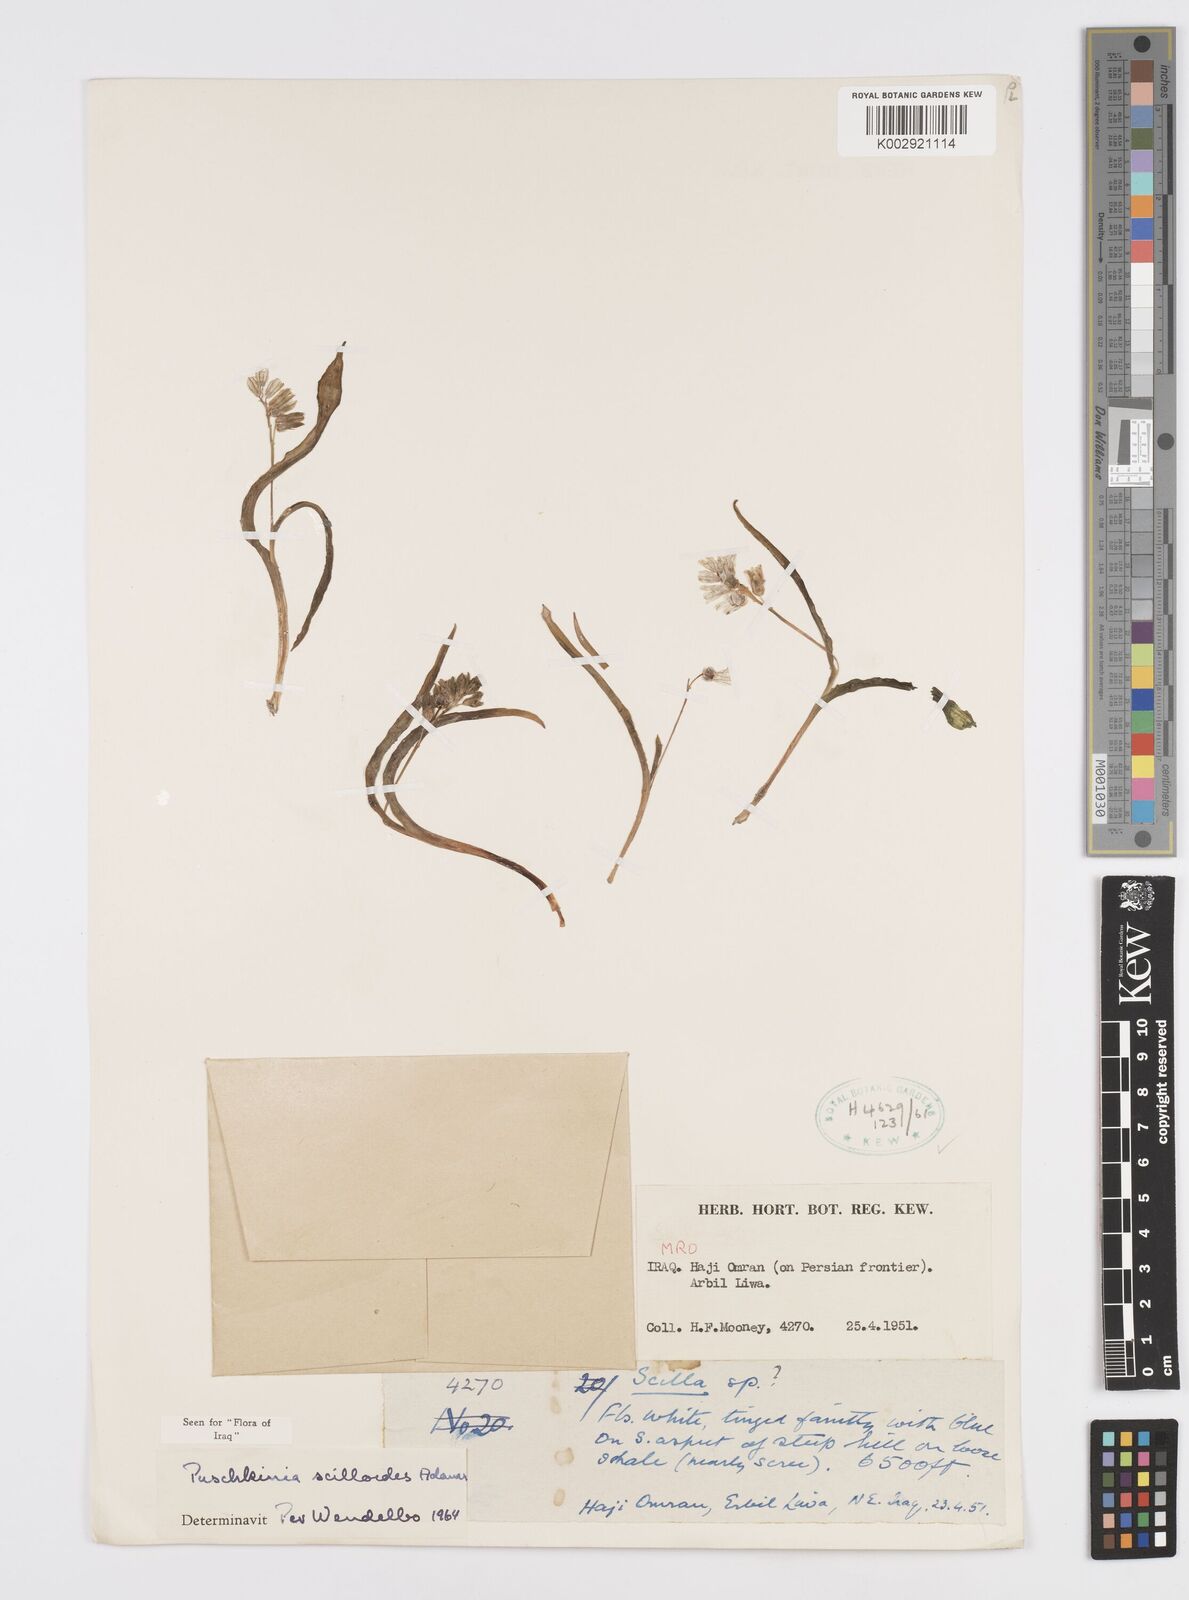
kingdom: Plantae
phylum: Tracheophyta
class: Liliopsida
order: Asparagales
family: Asparagaceae
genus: Puschkinia
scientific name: Puschkinia scilloides
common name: Striped squill
